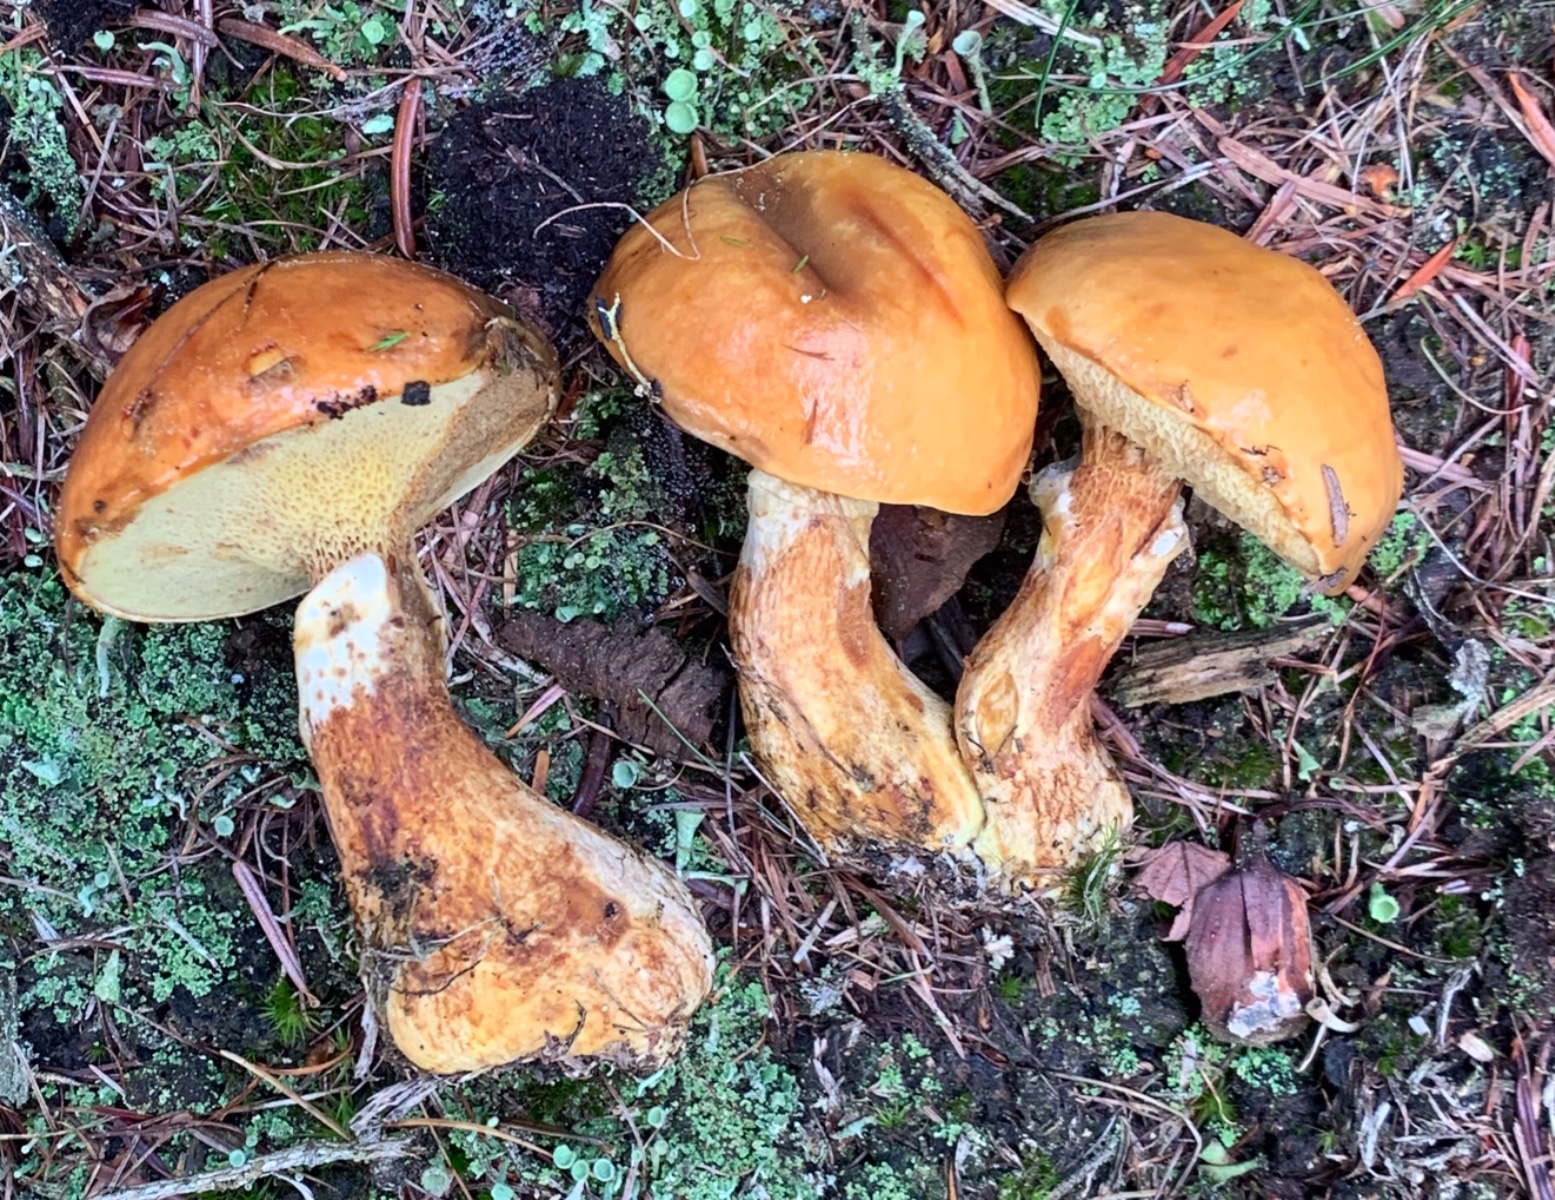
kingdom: Fungi
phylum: Basidiomycota
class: Agaricomycetes
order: Boletales
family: Suillaceae
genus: Suillus
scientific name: Suillus grevillei
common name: lærke-slimrørhat
